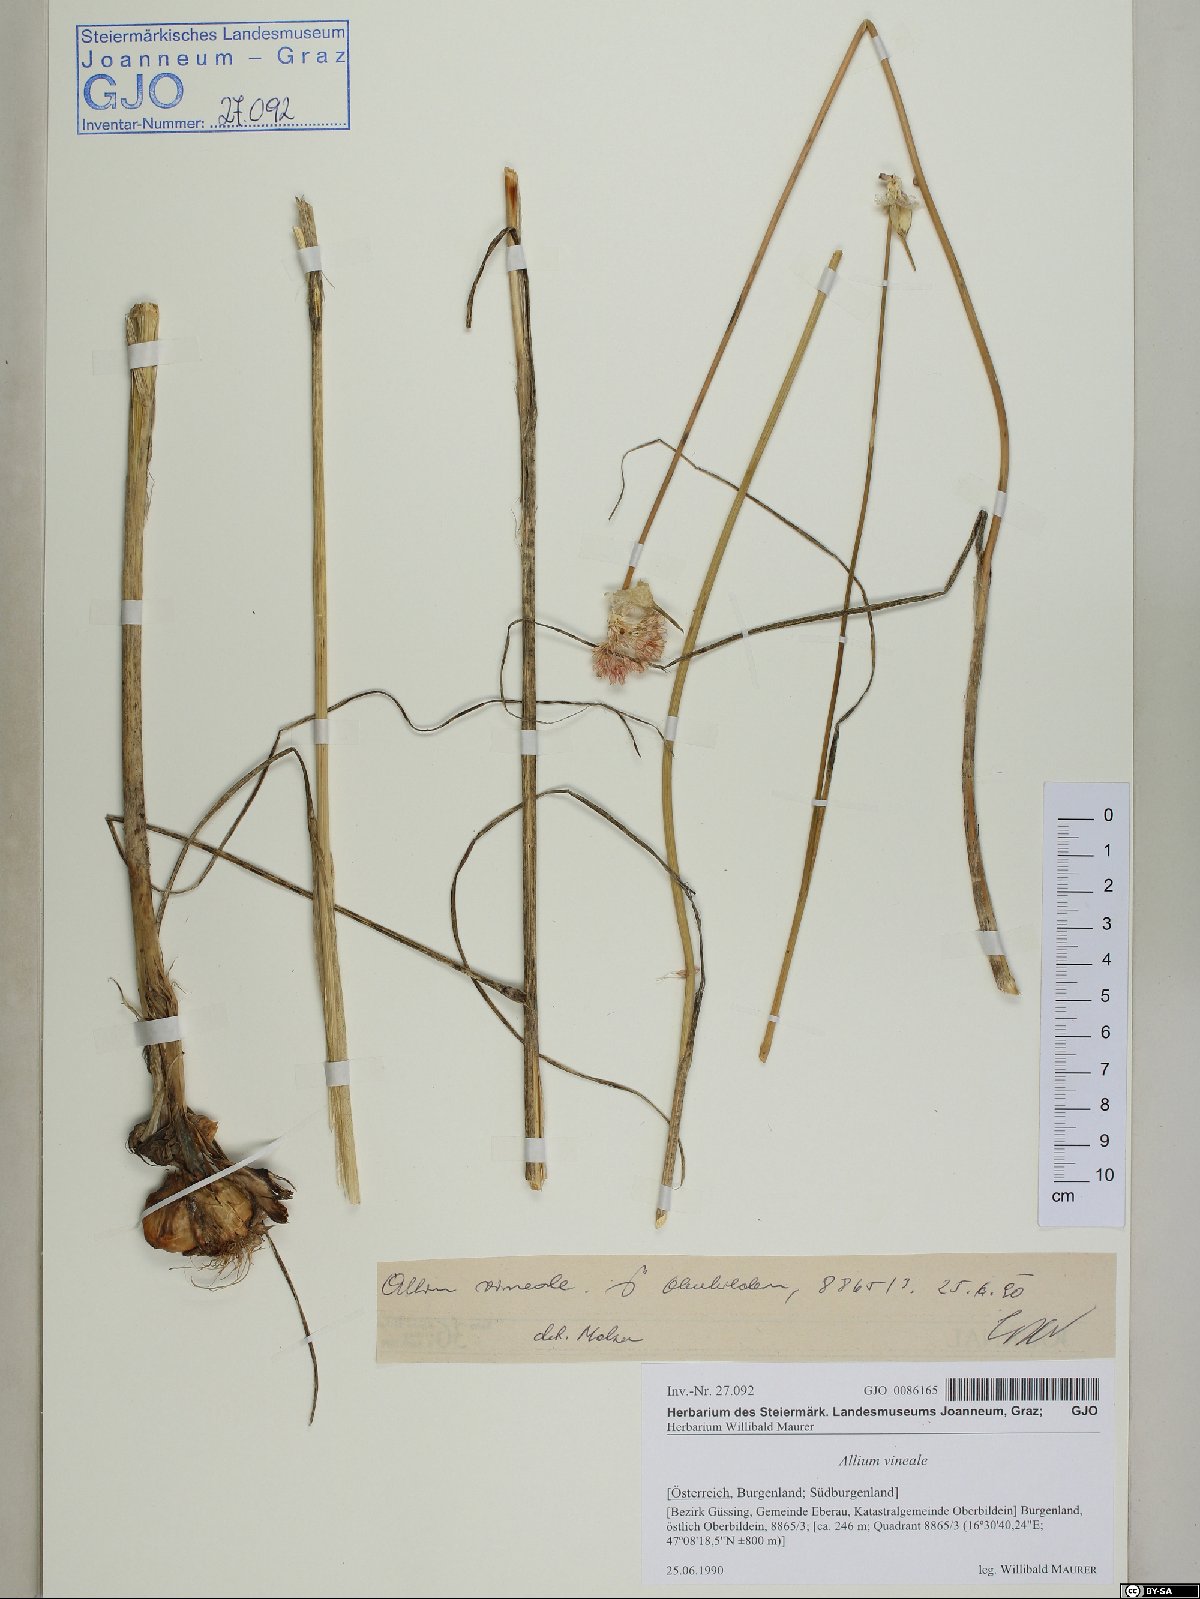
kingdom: Plantae
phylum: Tracheophyta
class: Liliopsida
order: Asparagales
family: Amaryllidaceae
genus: Allium
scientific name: Allium vineale
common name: Crow garlic
